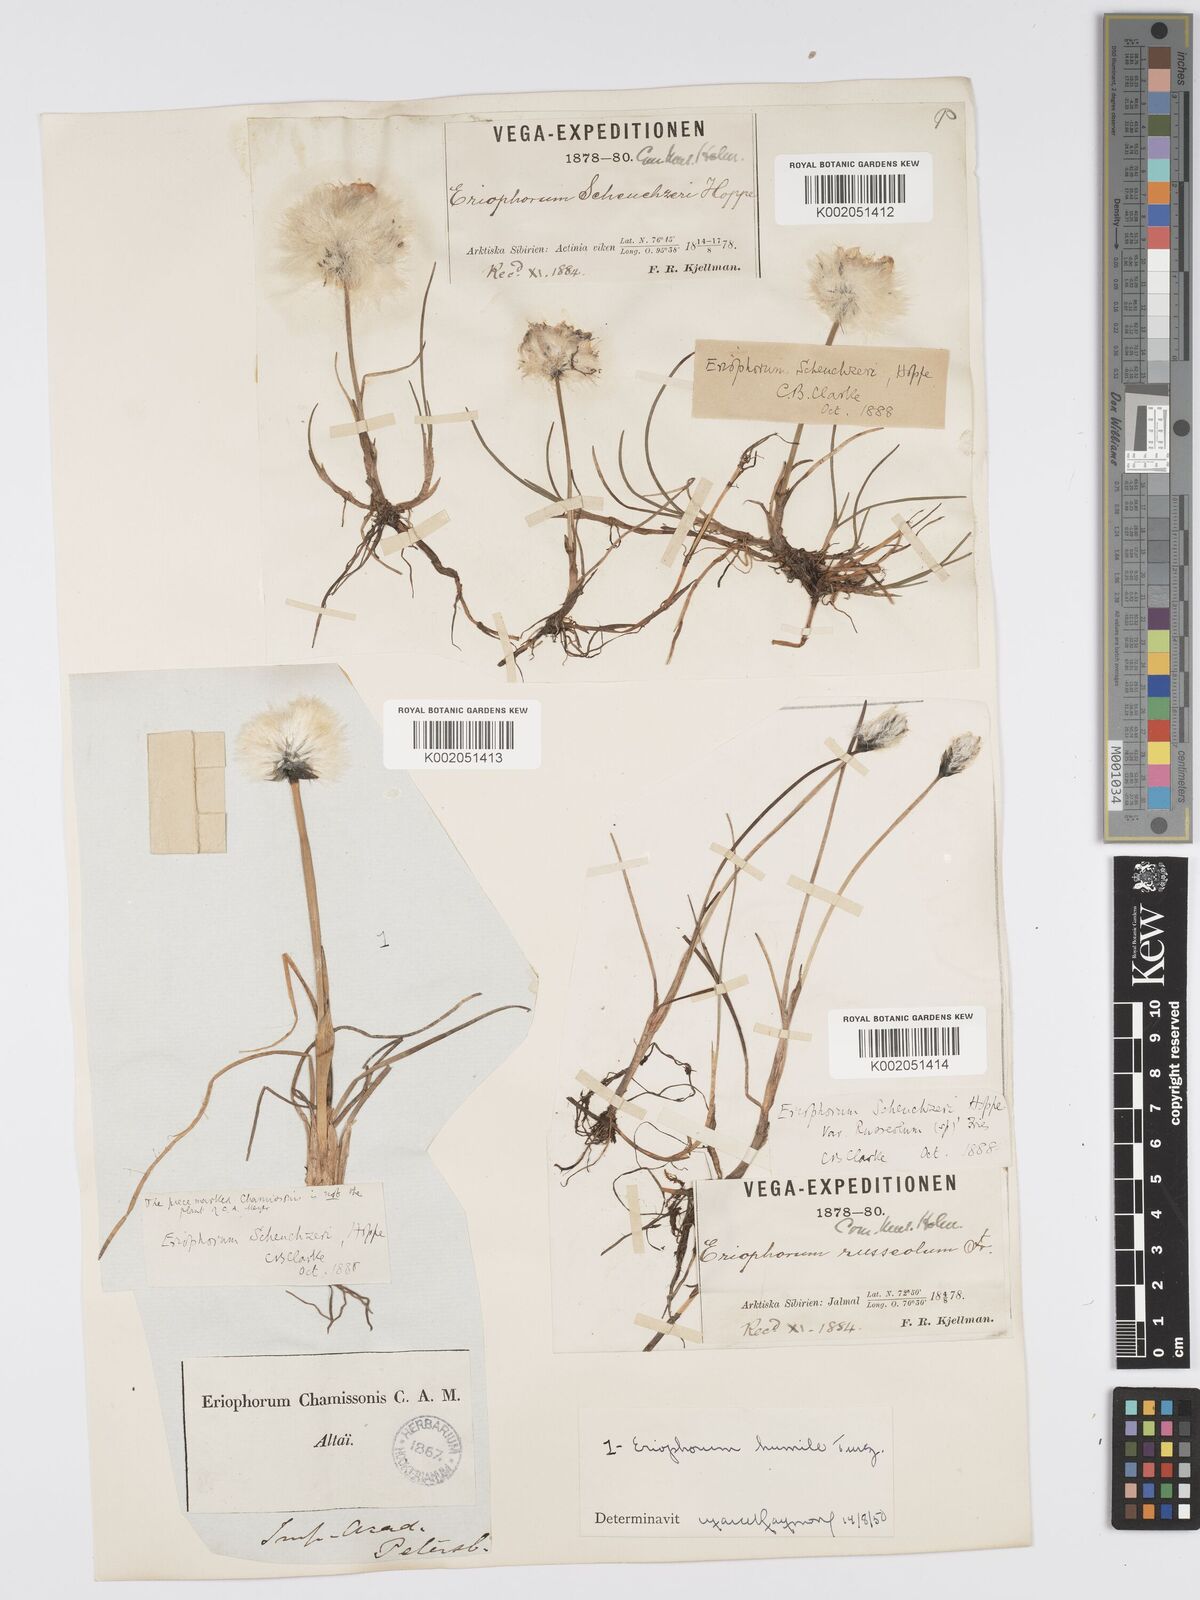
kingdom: Plantae
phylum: Tracheophyta
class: Liliopsida
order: Poales
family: Cyperaceae
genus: Eriophorum
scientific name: Eriophorum scheuchzeri
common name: Scheuchzer's cottongrass
